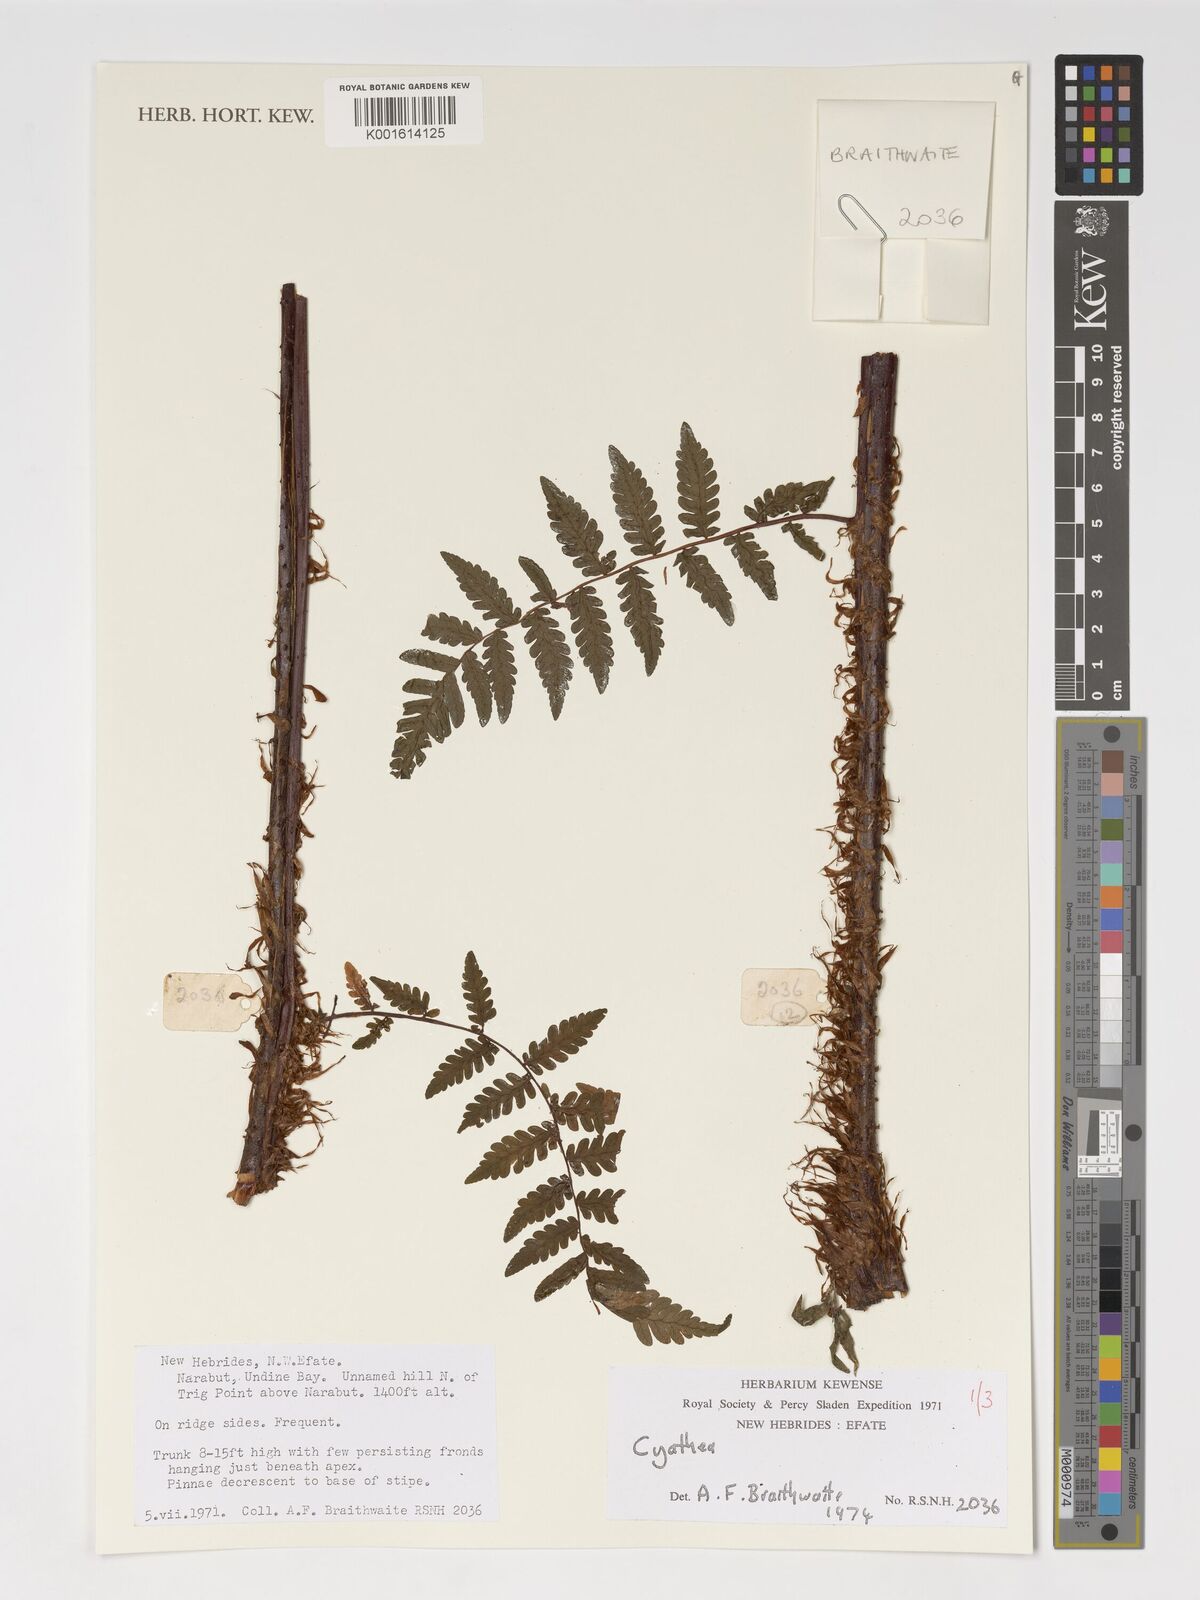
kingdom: Plantae
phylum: Tracheophyta
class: Polypodiopsida
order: Cyatheales
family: Cyatheaceae
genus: Cyathea
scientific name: Cyathea
